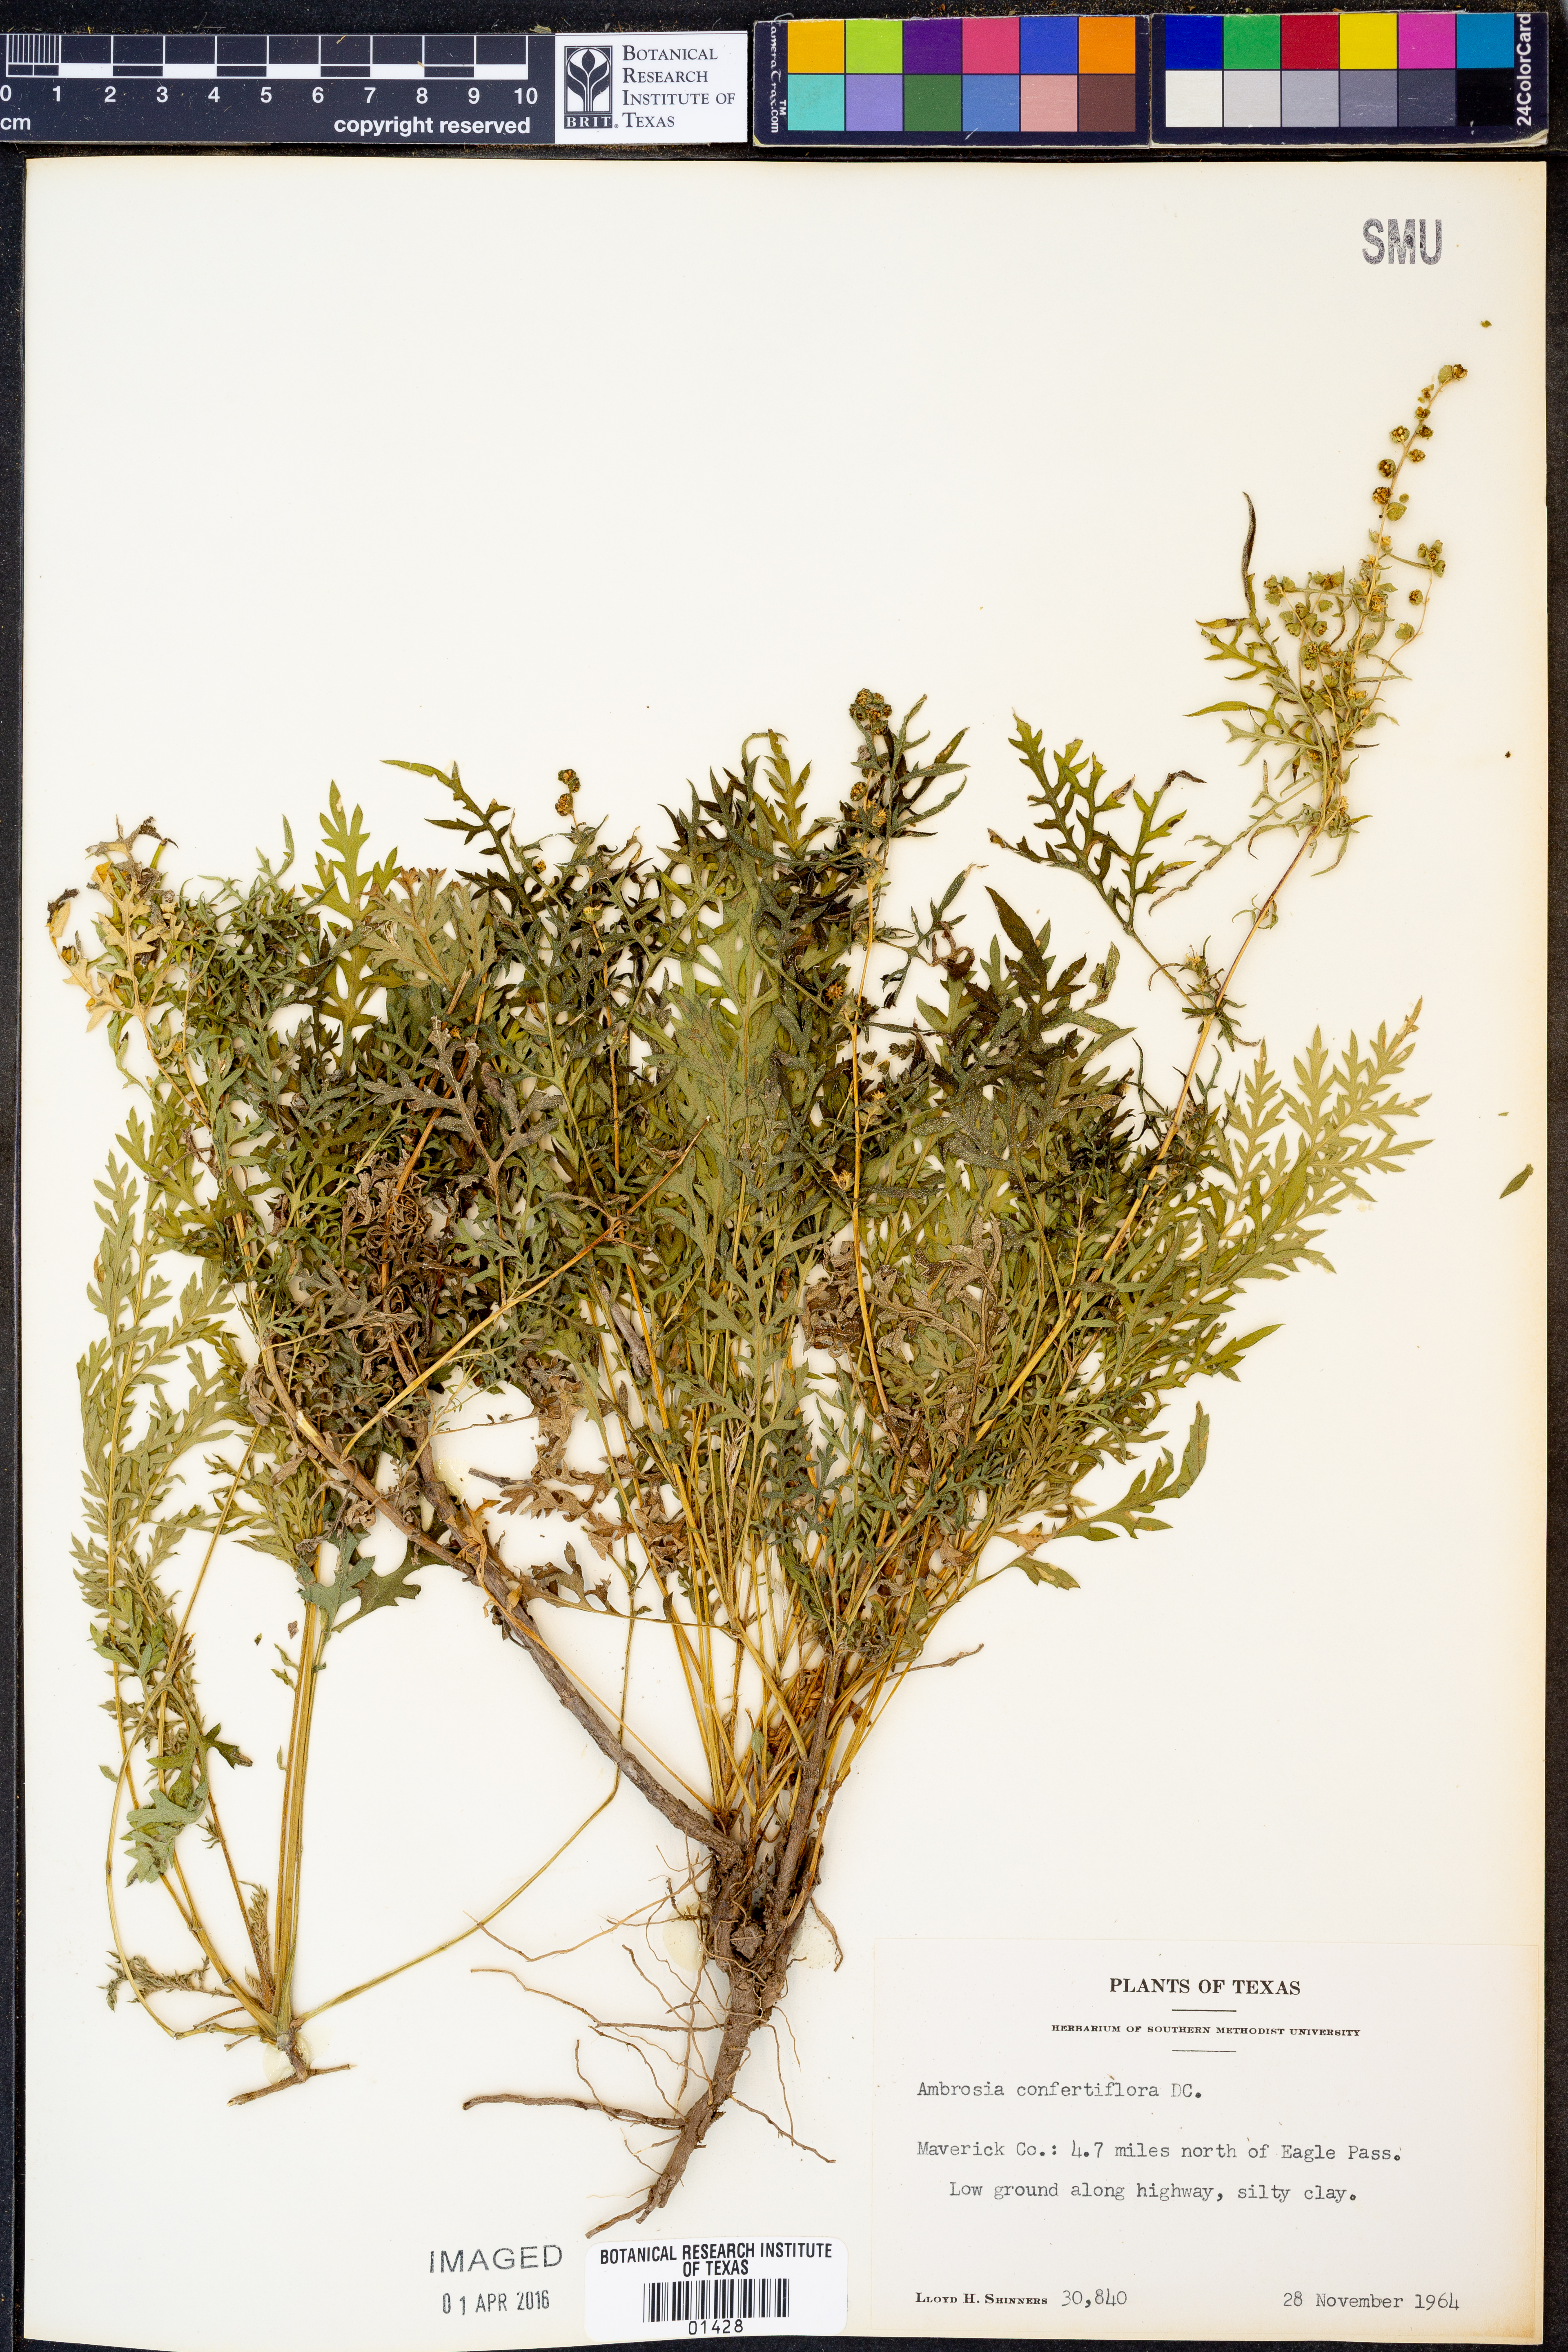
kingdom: Plantae
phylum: Tracheophyta
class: Magnoliopsida
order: Asterales
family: Asteraceae
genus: Ambrosia
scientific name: Ambrosia confertiflora
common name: Bur ragweed
